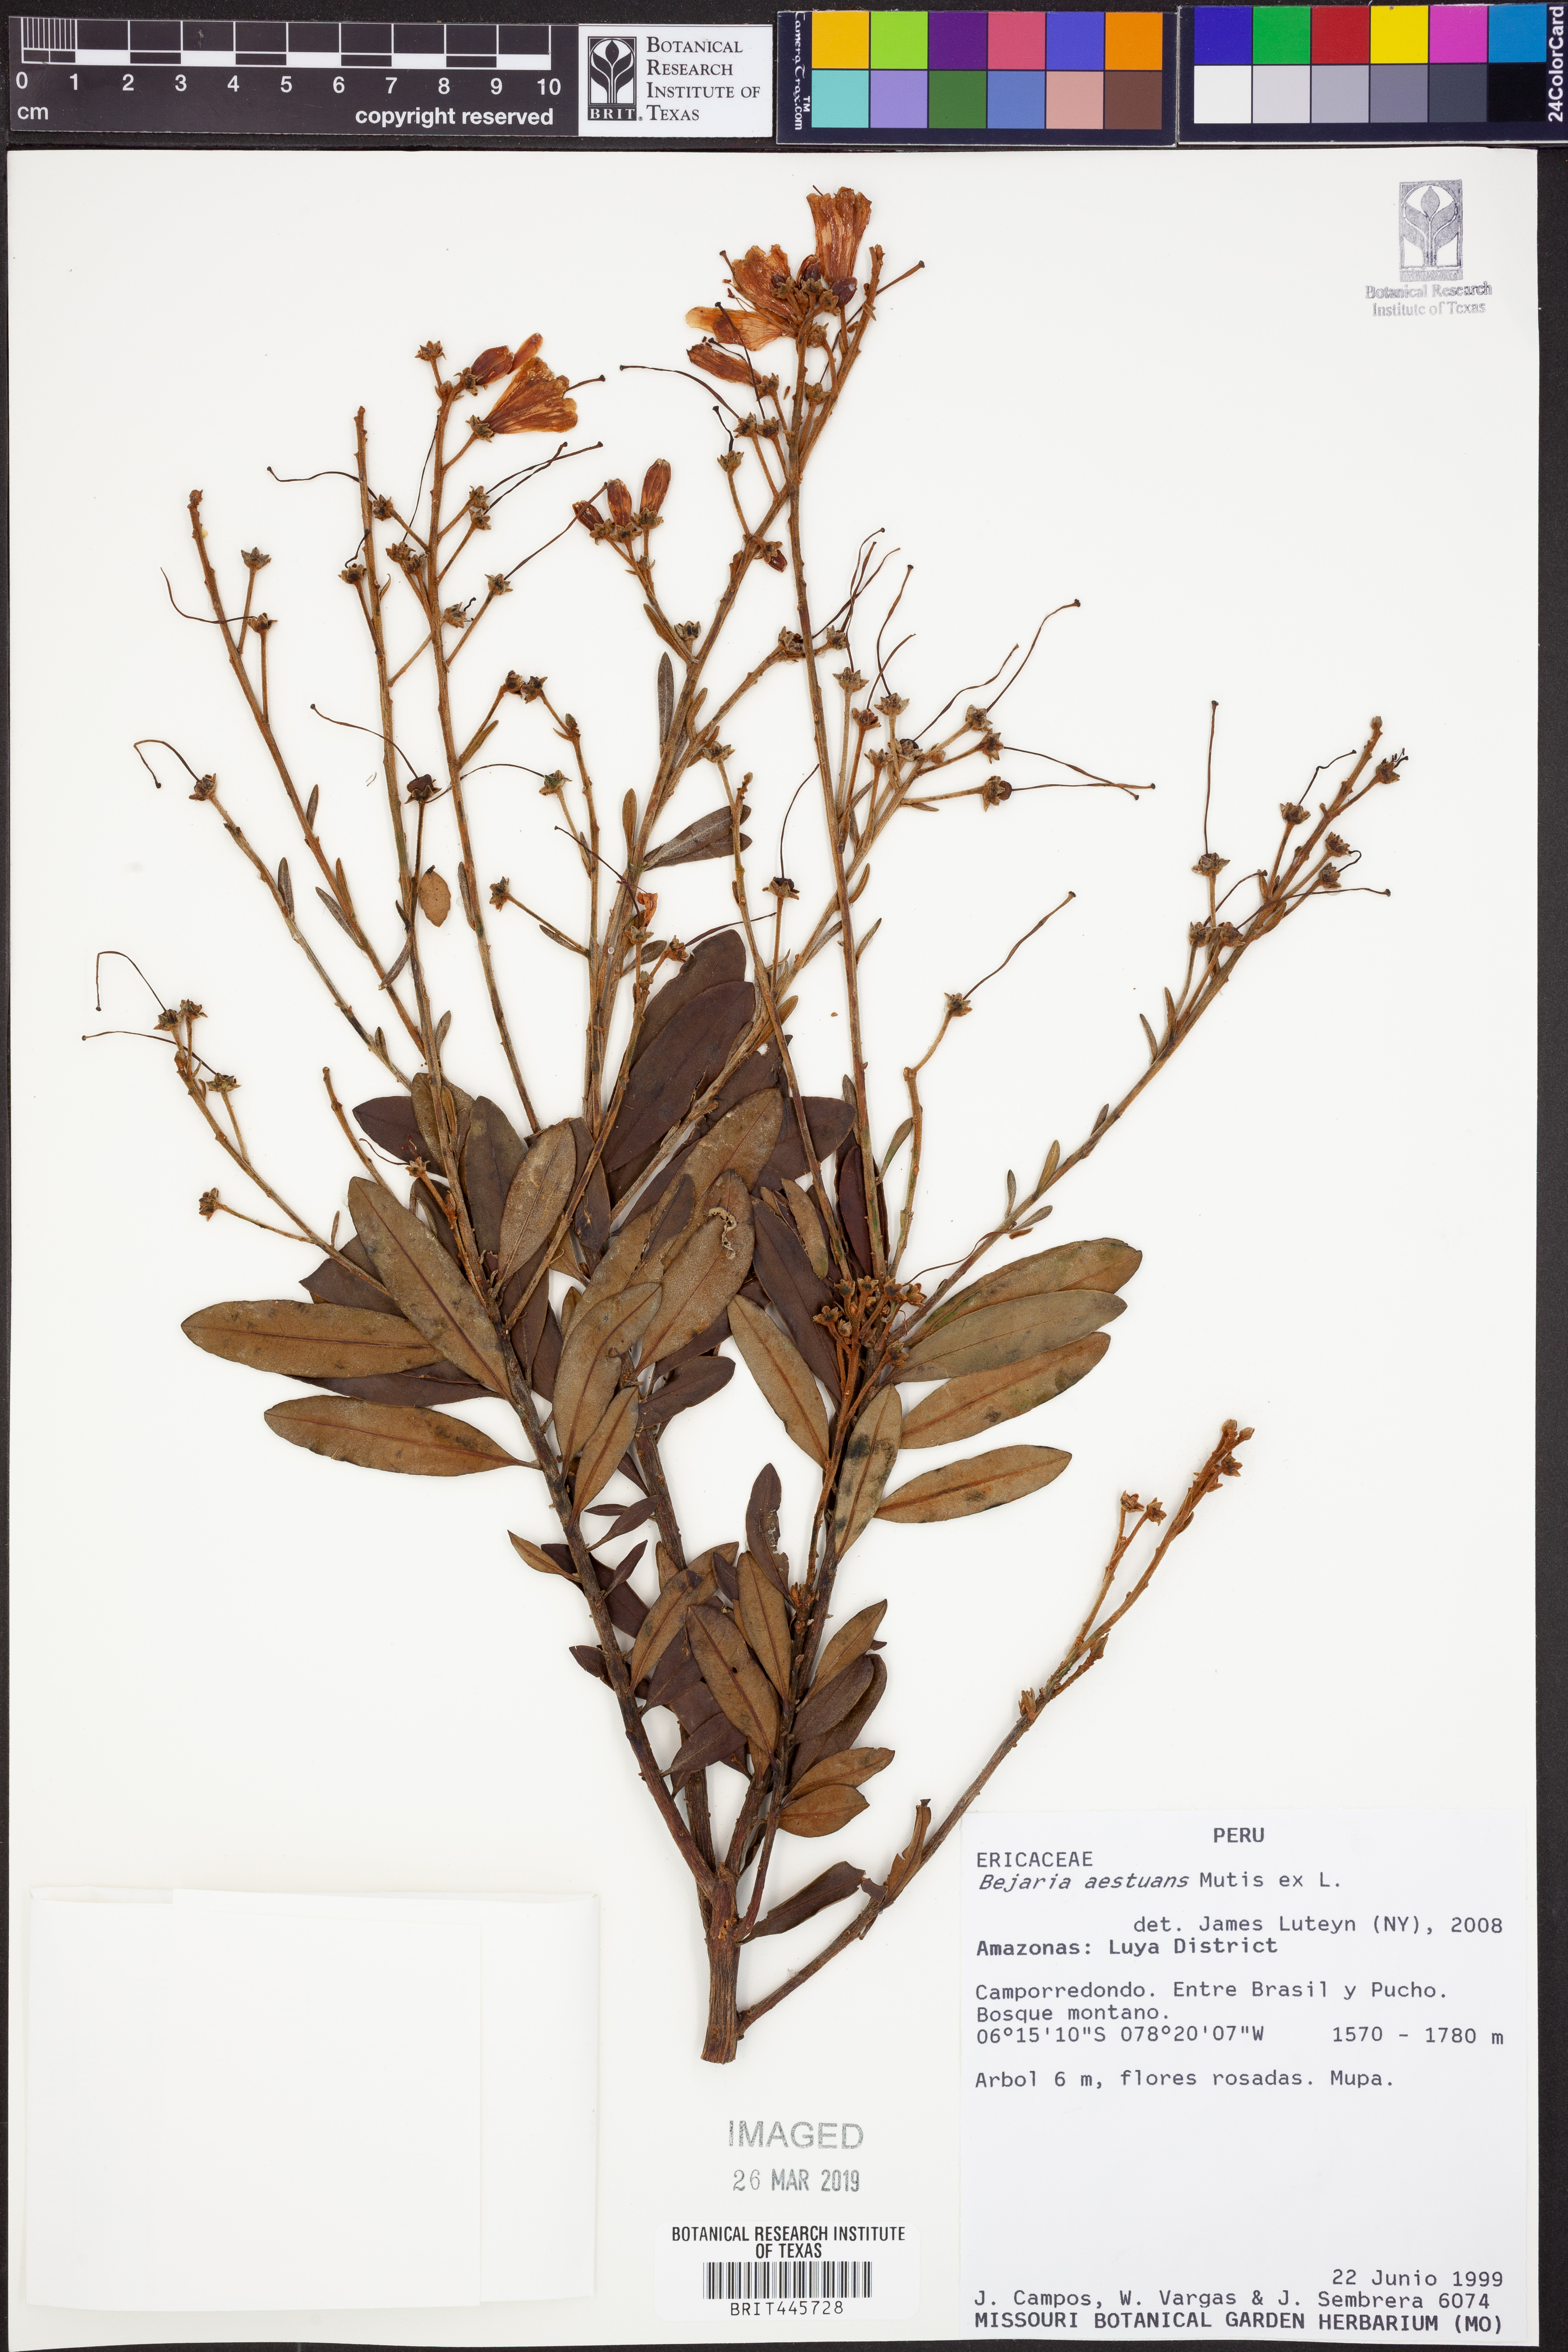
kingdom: Plantae
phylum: Tracheophyta
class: Magnoliopsida
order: Ericales
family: Ericaceae
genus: Bejaria
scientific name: Bejaria aestuans
